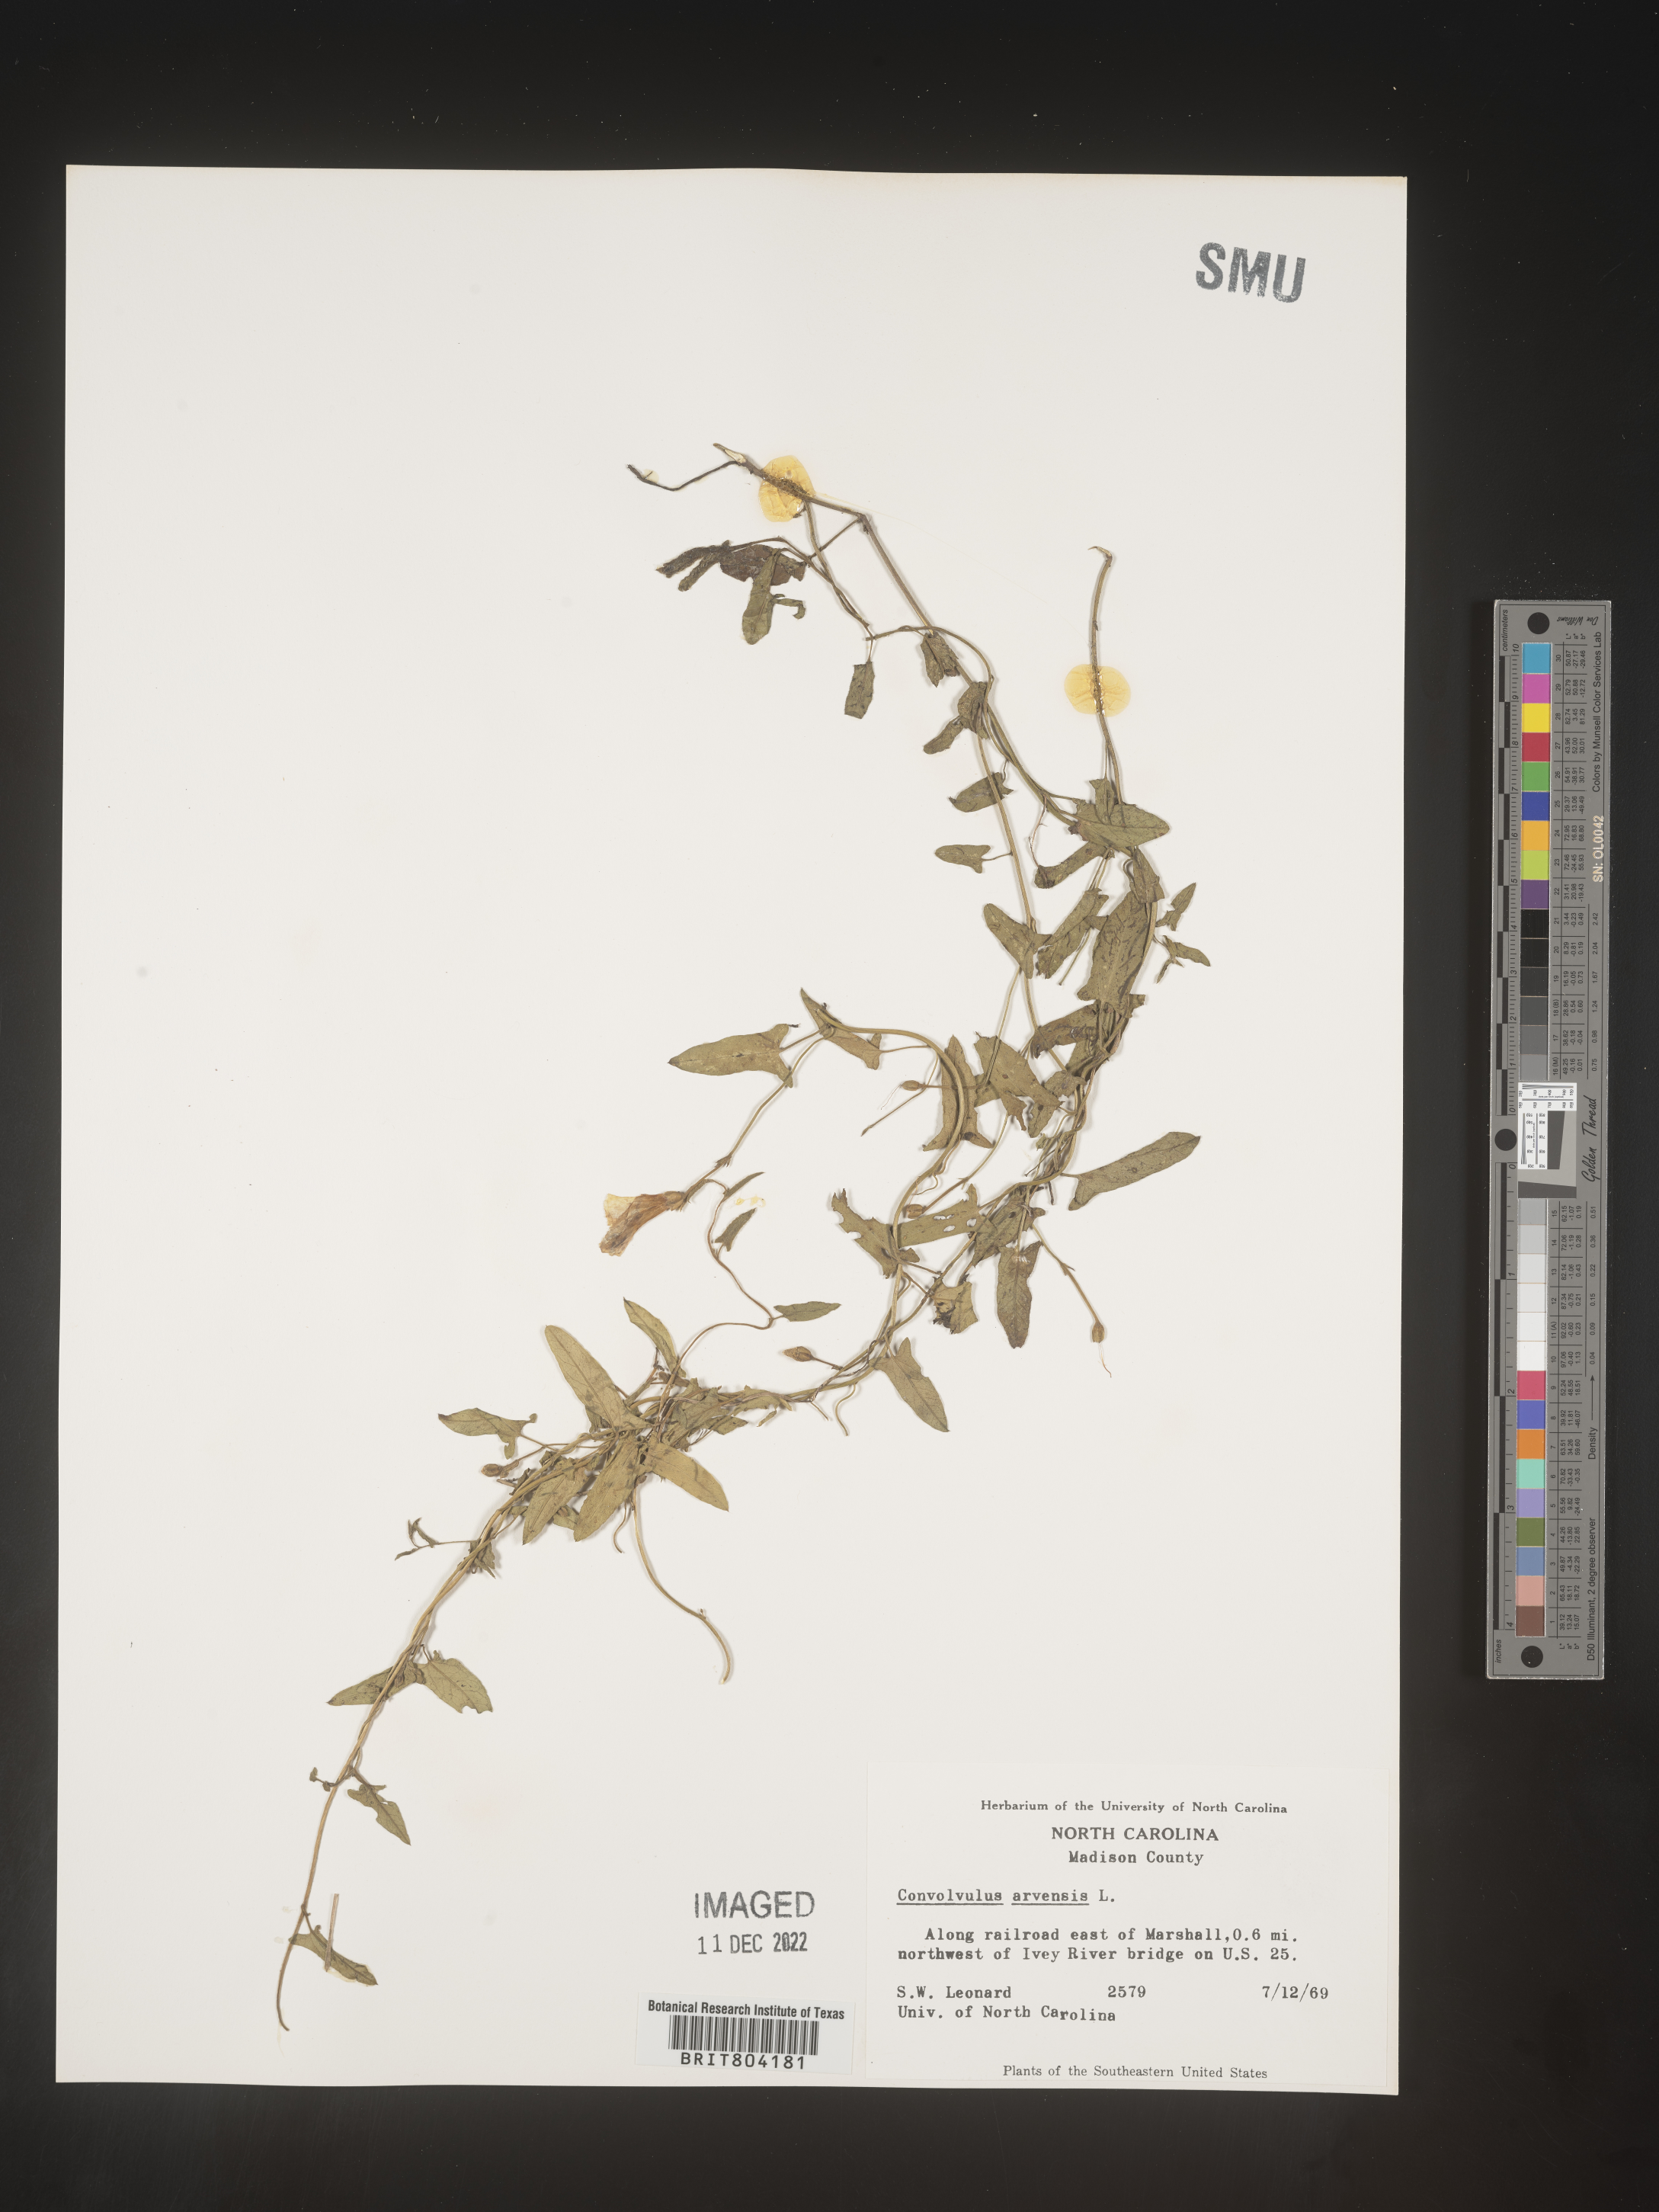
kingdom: Plantae
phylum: Tracheophyta
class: Magnoliopsida
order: Solanales
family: Convolvulaceae
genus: Convolvulus
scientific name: Convolvulus arvensis
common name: Field bindweed
